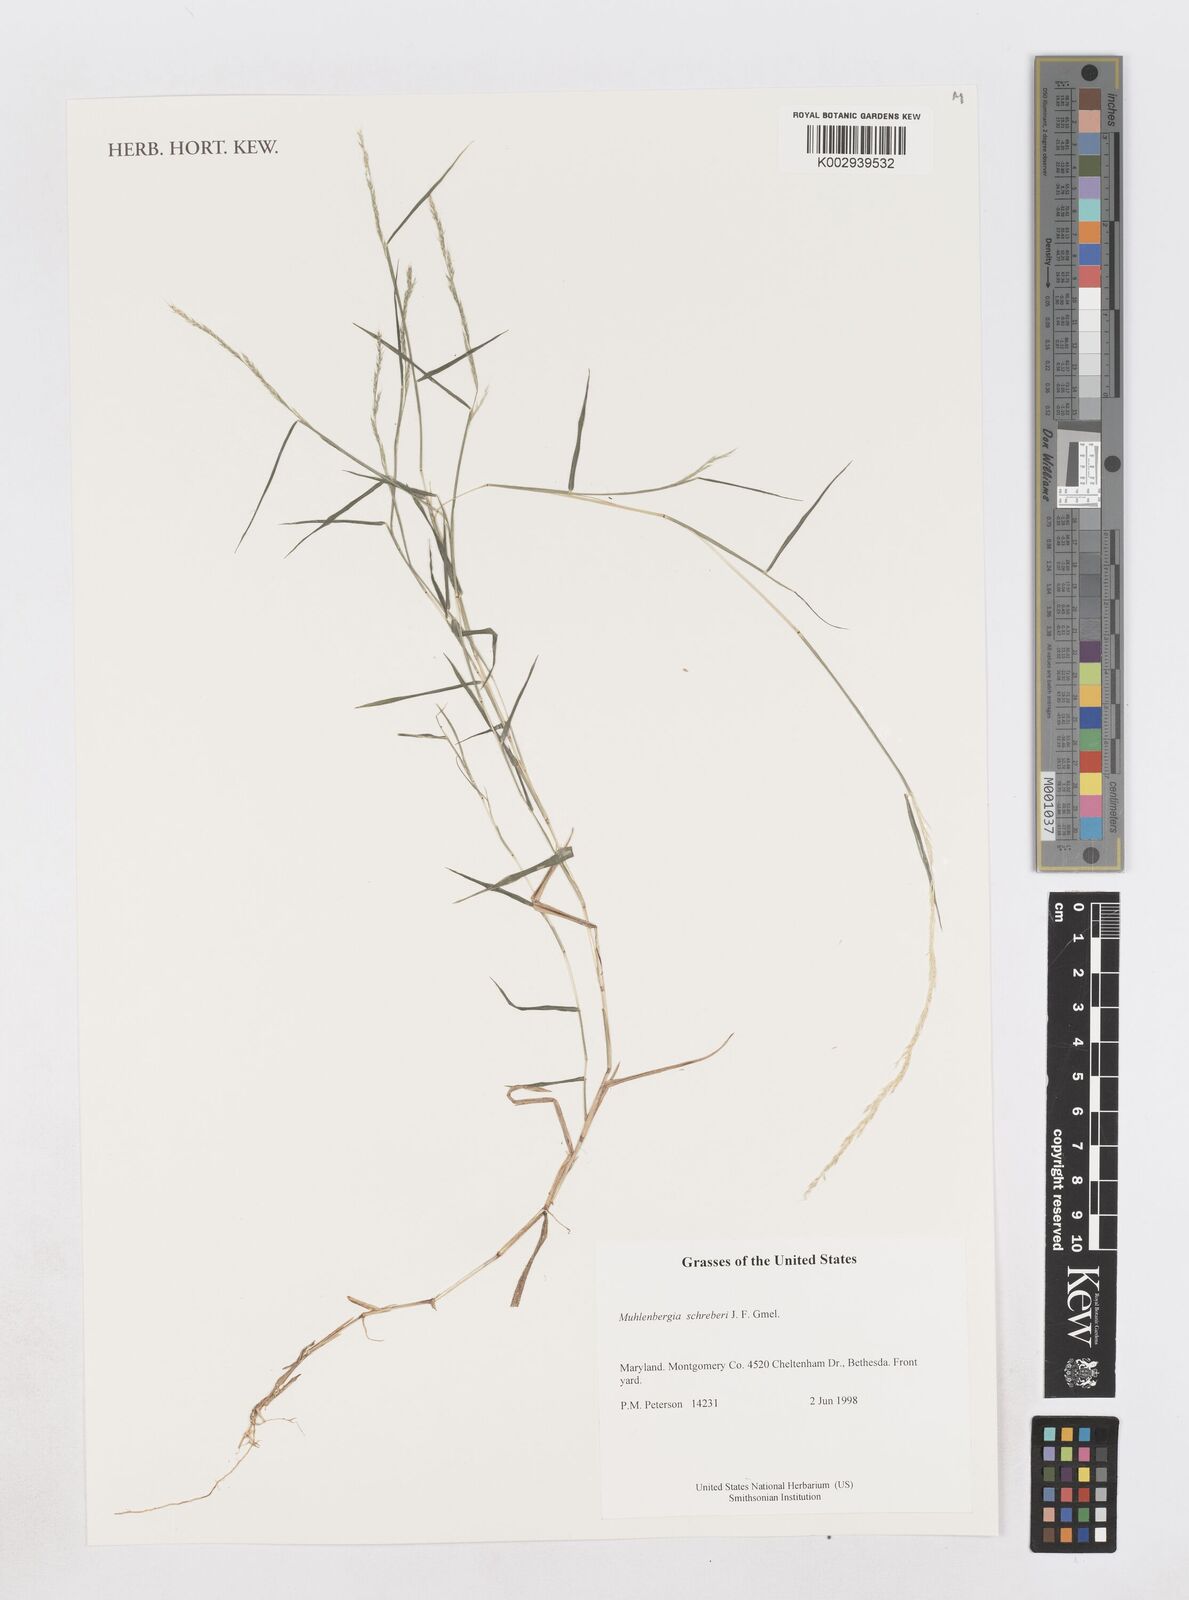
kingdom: Plantae
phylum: Tracheophyta
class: Liliopsida
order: Poales
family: Poaceae
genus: Muhlenbergia
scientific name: Muhlenbergia schreberi
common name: Nimblewill
